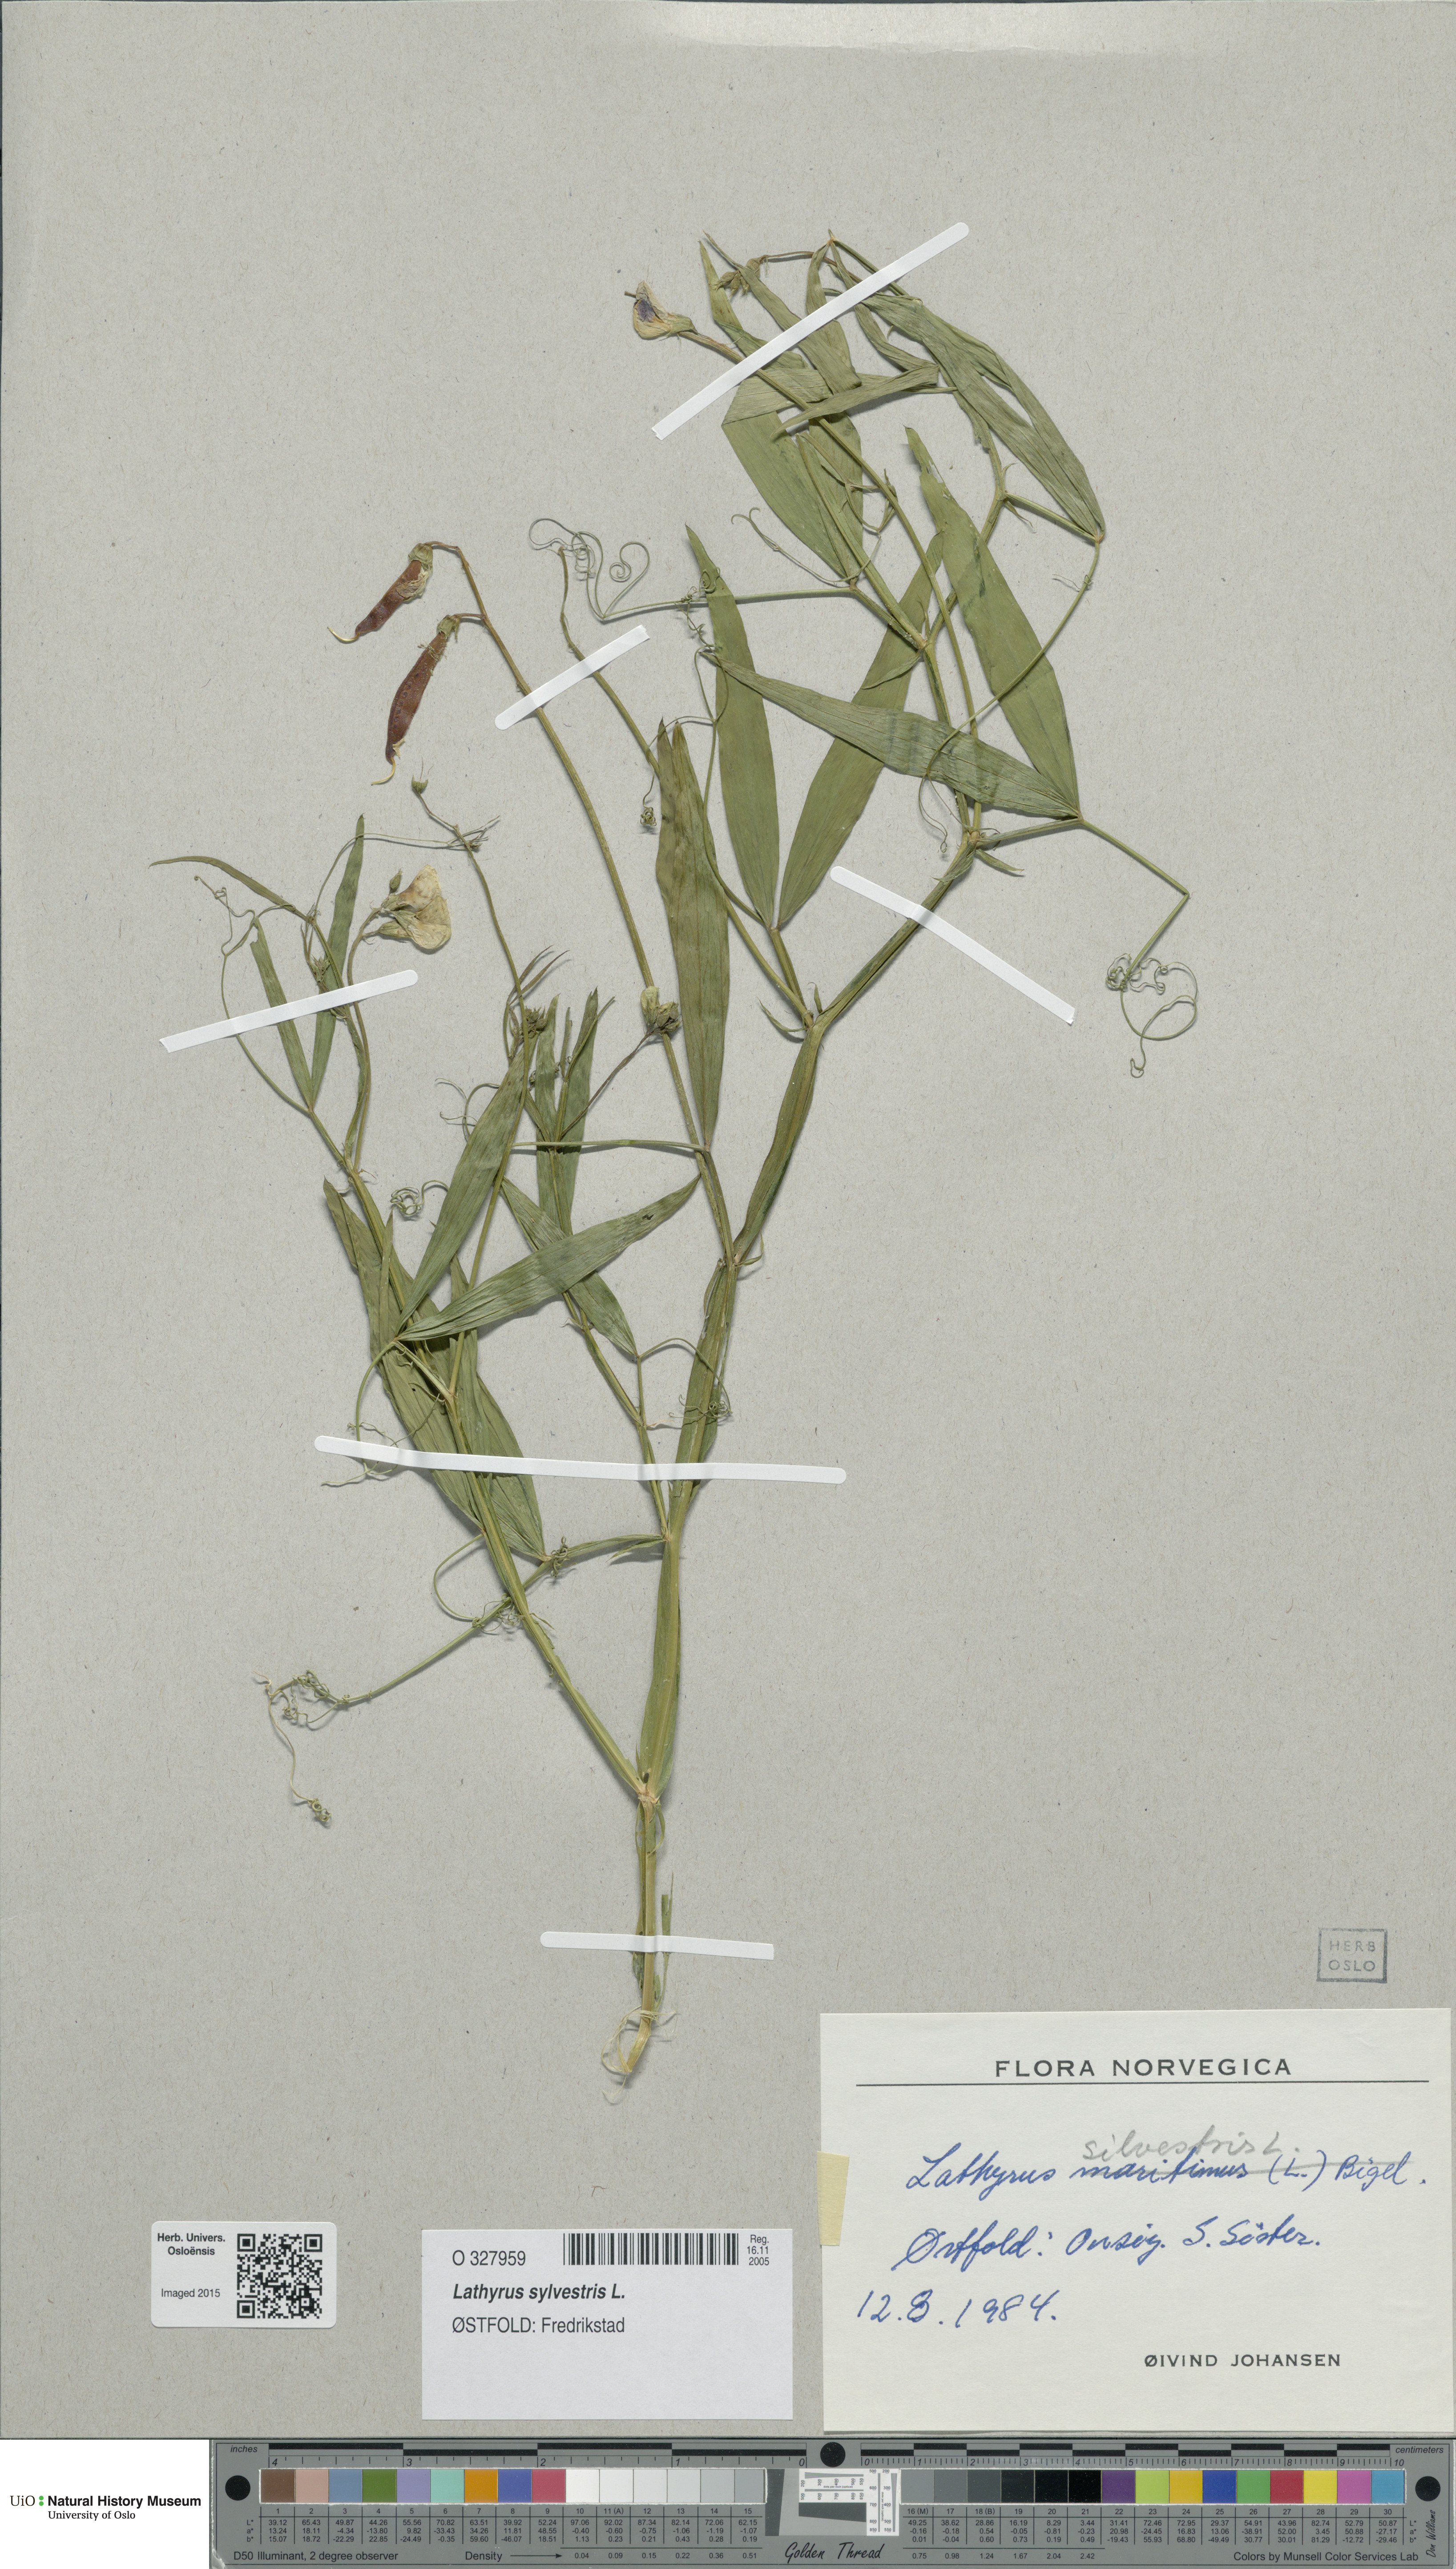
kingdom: Plantae
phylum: Tracheophyta
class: Magnoliopsida
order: Fabales
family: Fabaceae
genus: Lathyrus
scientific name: Lathyrus sylvestris
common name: Flat pea
